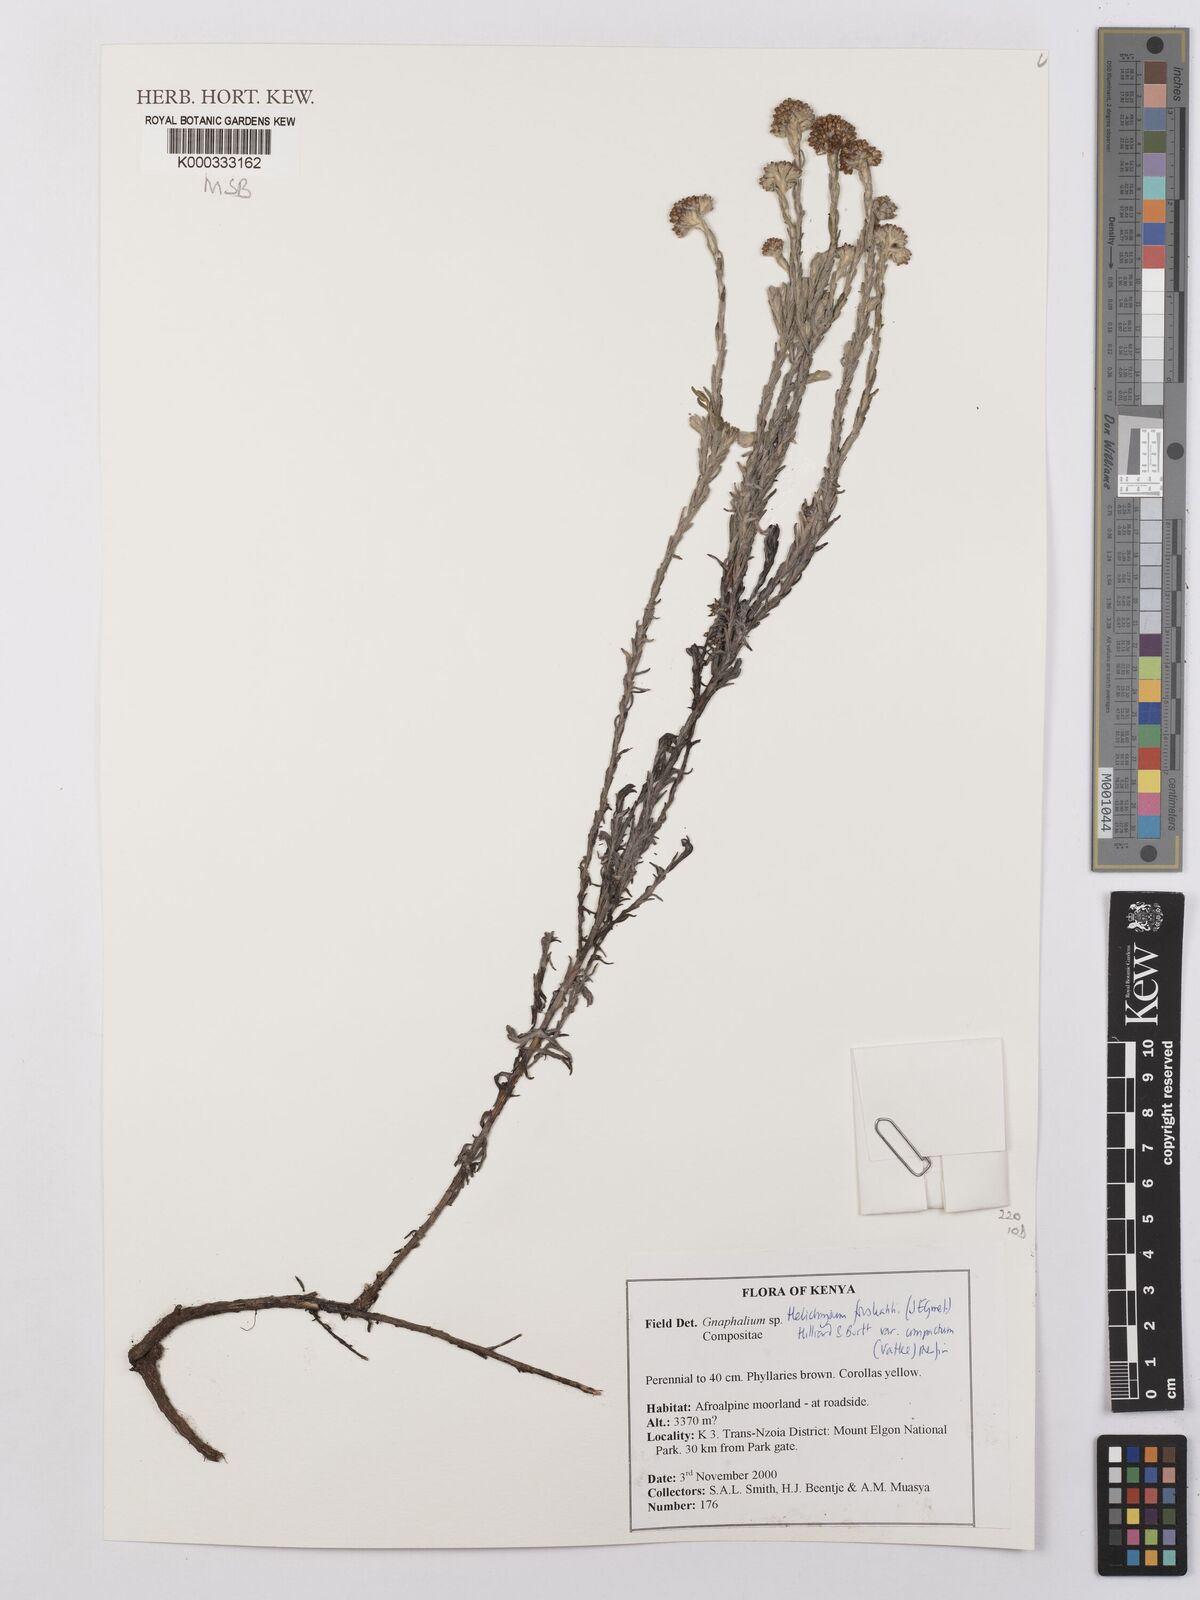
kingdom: Plantae
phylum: Tracheophyta
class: Magnoliopsida
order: Asterales
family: Asteraceae
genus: Helichrysum
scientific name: Helichrysum forskahlii
